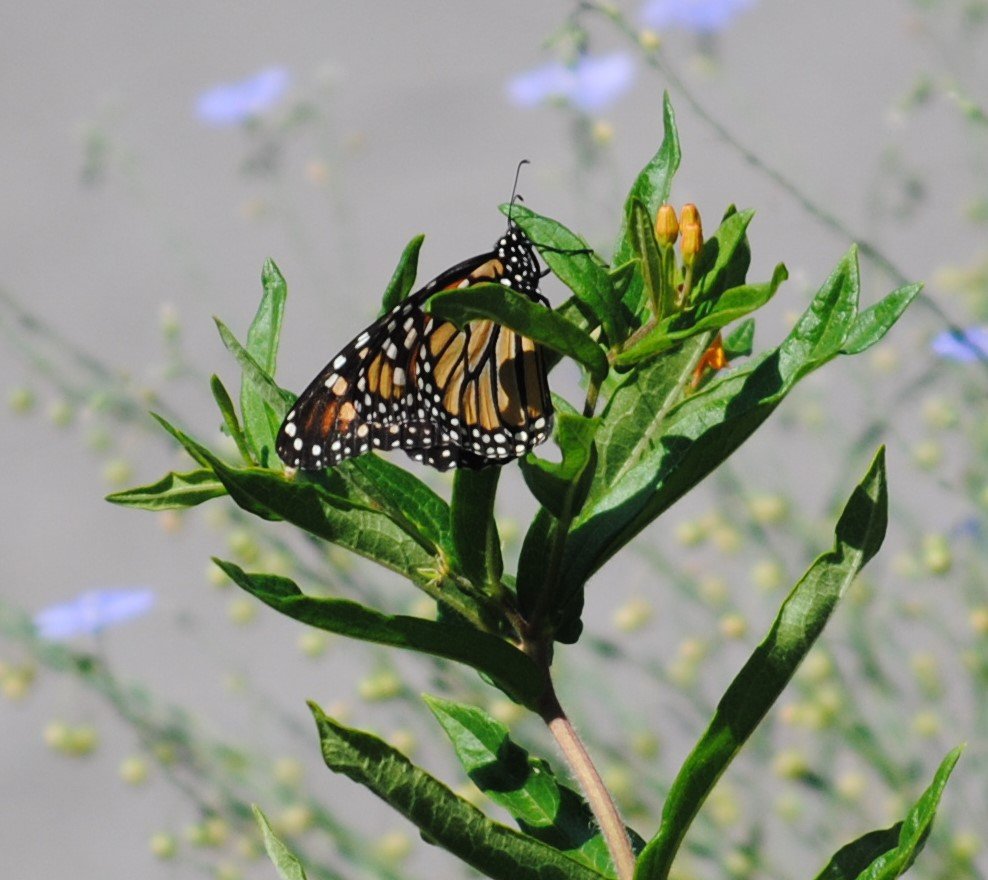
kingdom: Animalia
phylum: Arthropoda
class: Insecta
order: Lepidoptera
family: Nymphalidae
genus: Danaus
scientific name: Danaus plexippus
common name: Monarch
